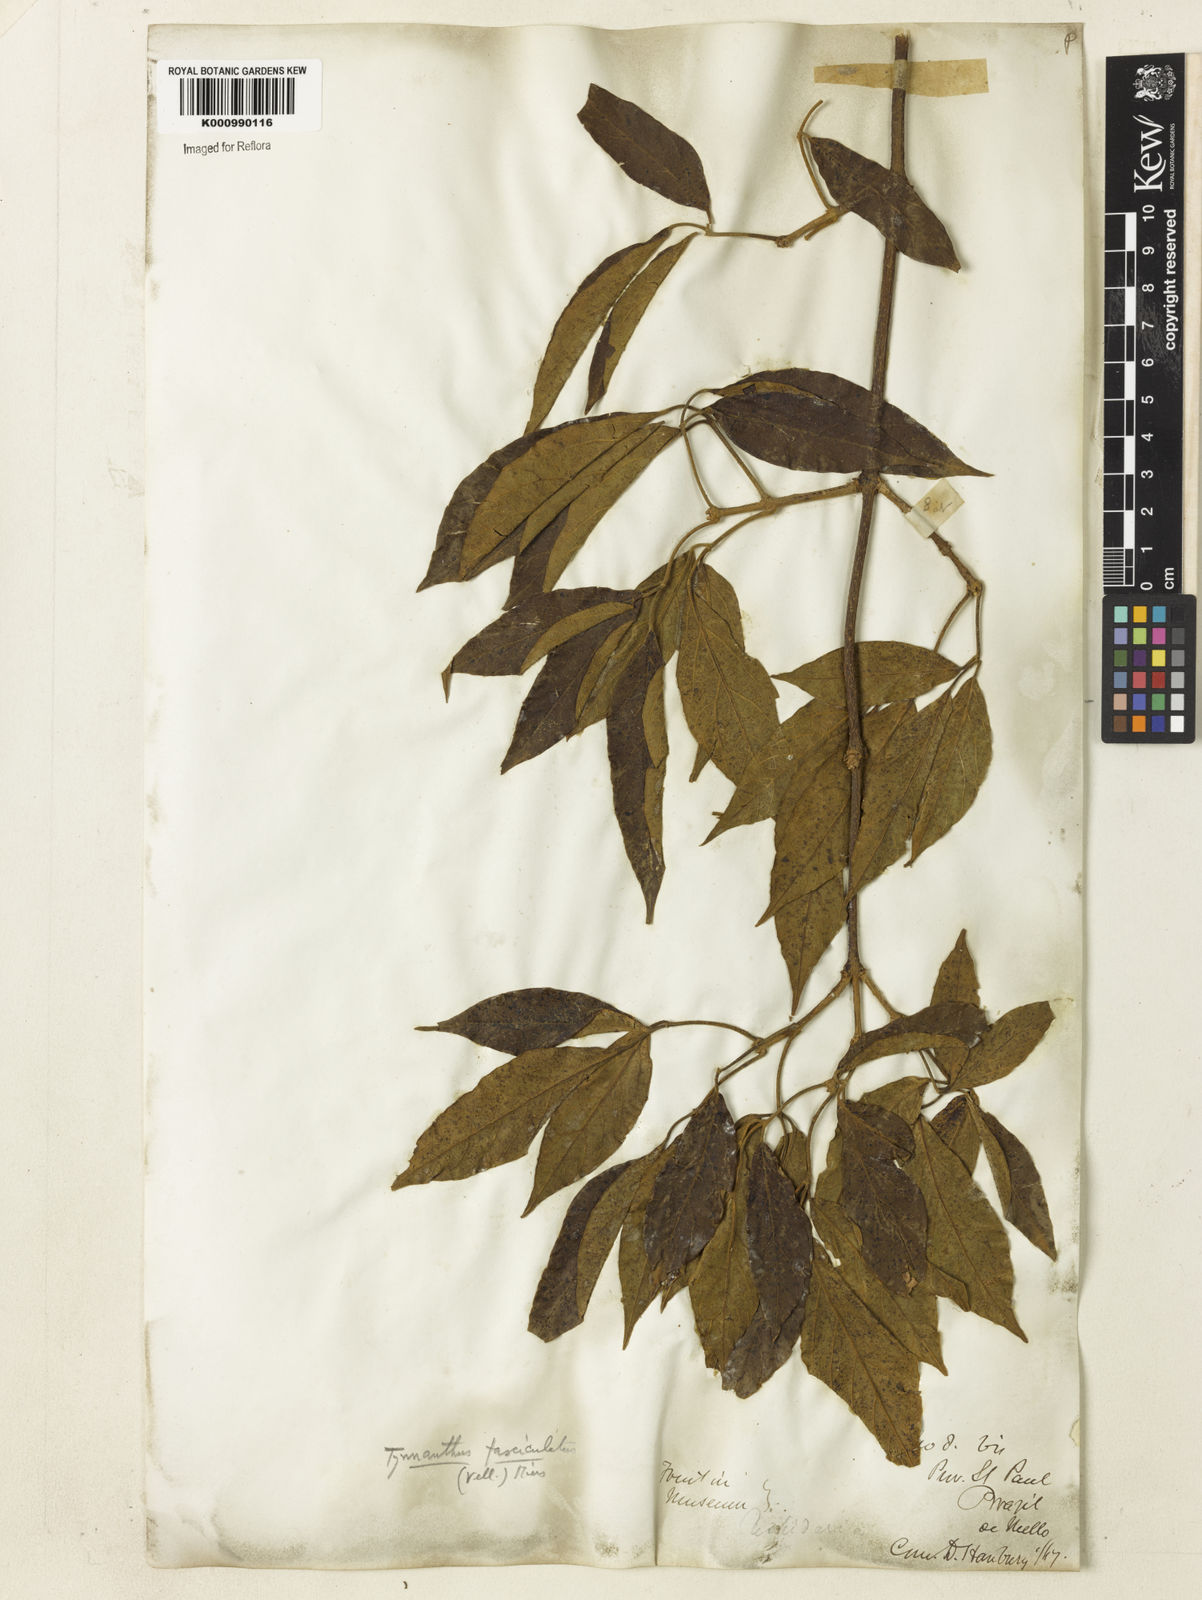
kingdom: Plantae
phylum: Tracheophyta
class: Magnoliopsida
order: Lamiales
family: Bignoniaceae
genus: Tynanthus
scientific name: Tynanthus fasciculatus
